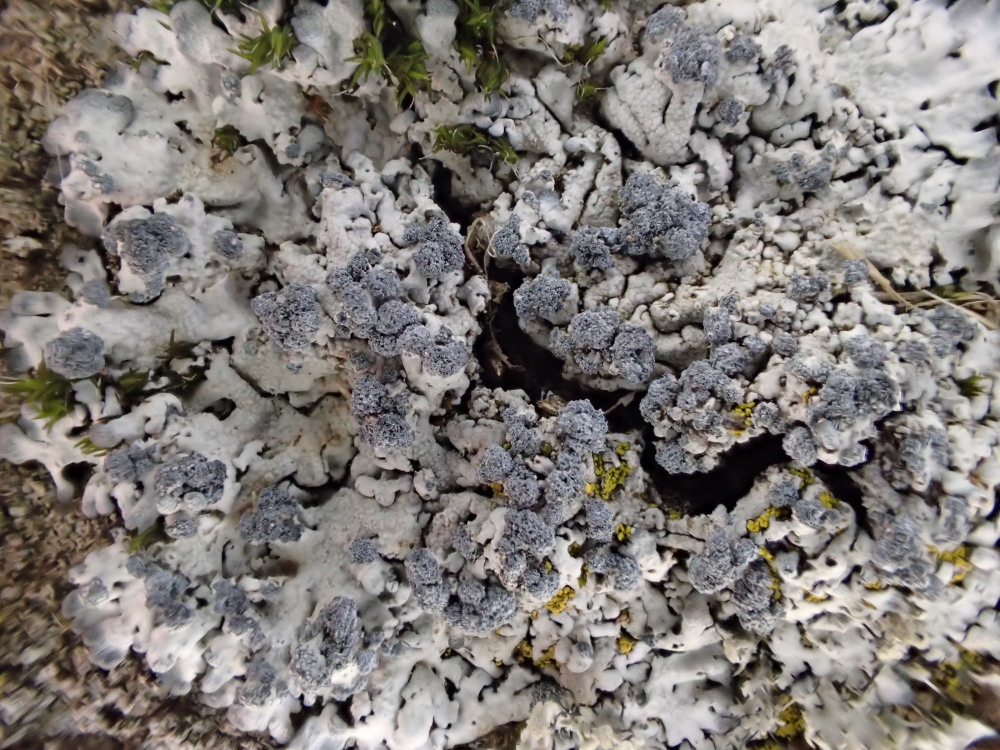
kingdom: Fungi
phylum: Ascomycota
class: Lecanoromycetes
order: Caliciales
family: Physciaceae
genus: Physcia
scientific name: Physcia caesia
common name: blågrå rosetlav
